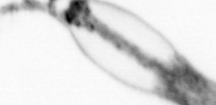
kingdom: Animalia
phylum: Arthropoda
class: Copepoda
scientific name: Copepoda
